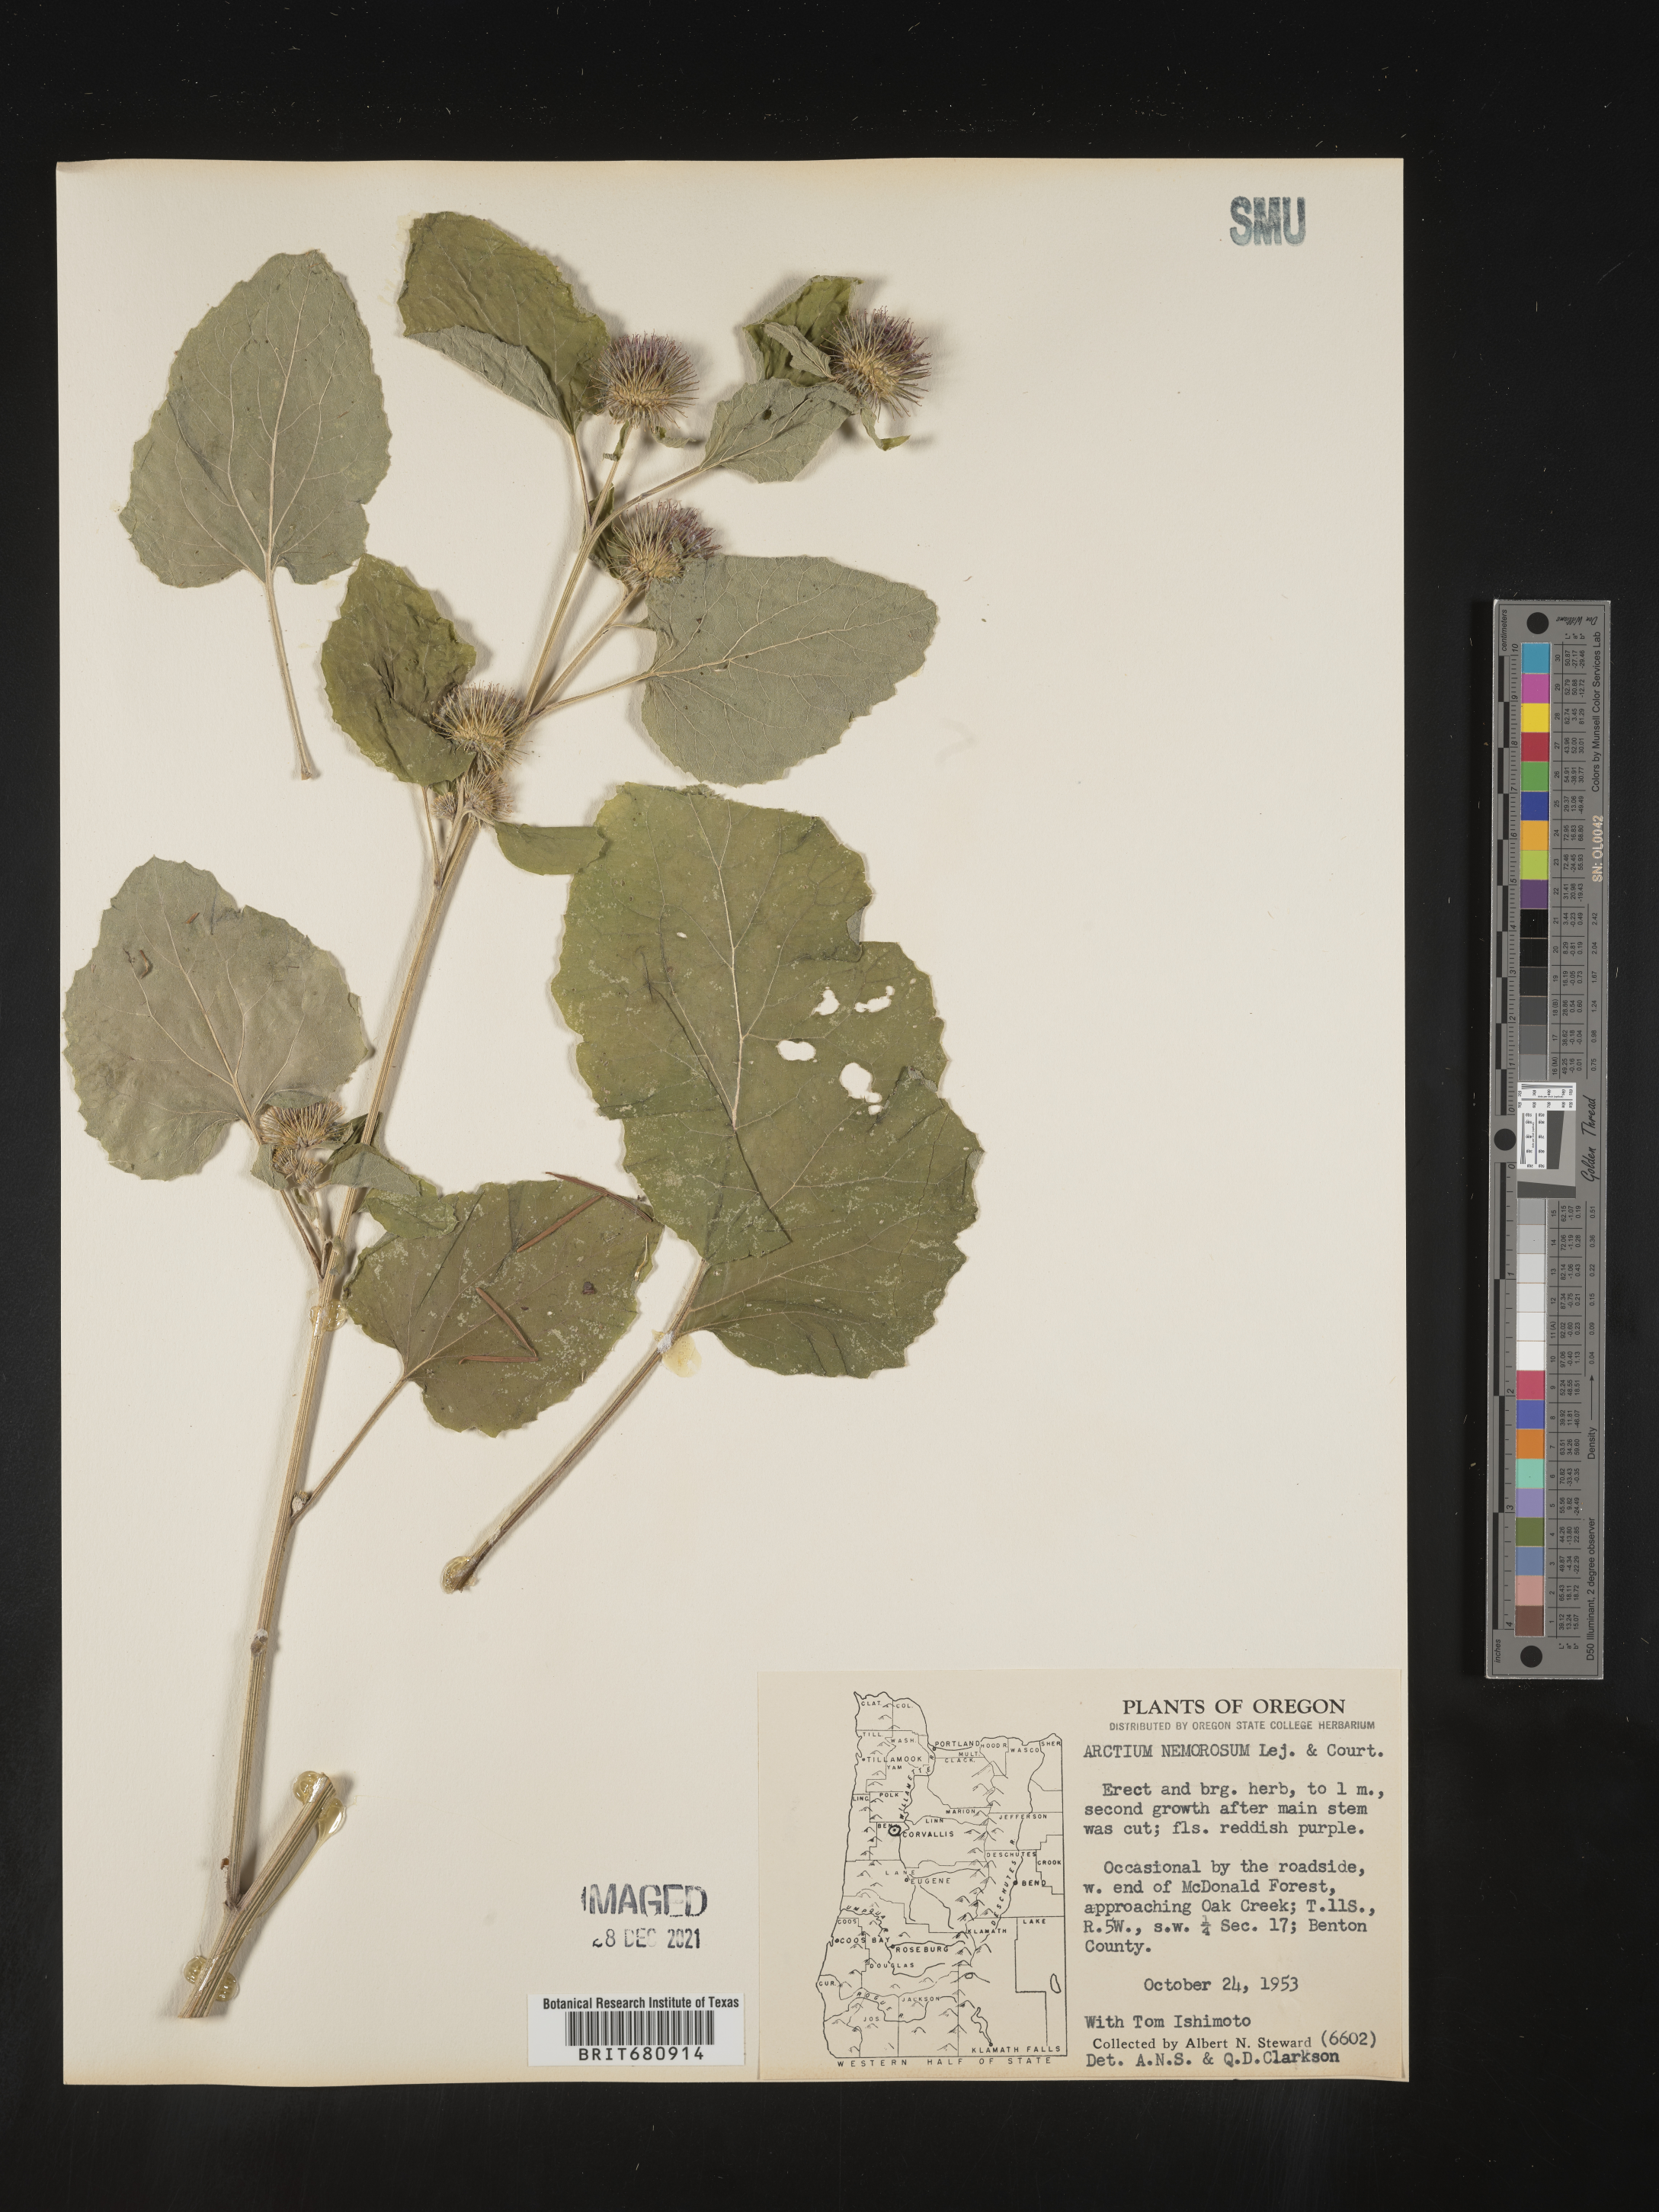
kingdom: Plantae
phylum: Tracheophyta
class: Magnoliopsida
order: Asterales
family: Asteraceae
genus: Arctium
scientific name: Arctium
